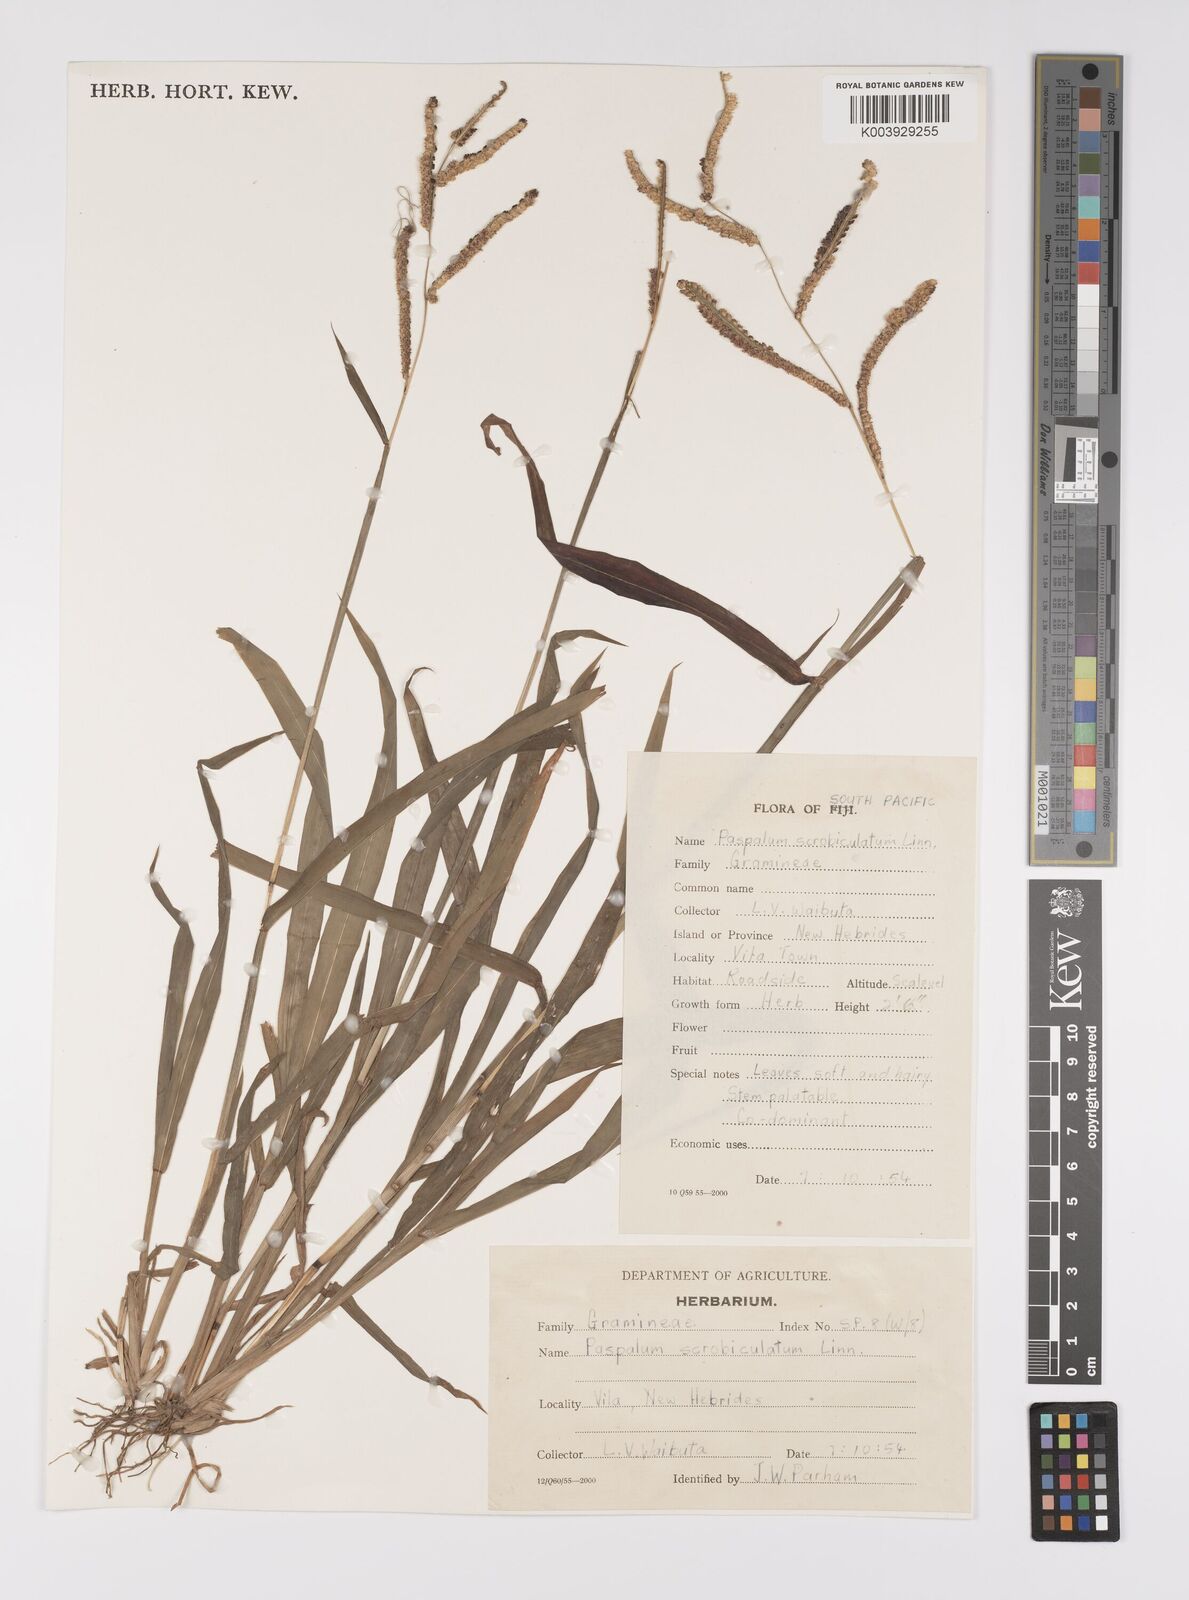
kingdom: Plantae
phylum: Tracheophyta
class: Liliopsida
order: Poales
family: Poaceae
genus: Paspalum
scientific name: Paspalum fimbriatum
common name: Panama crowngrass
